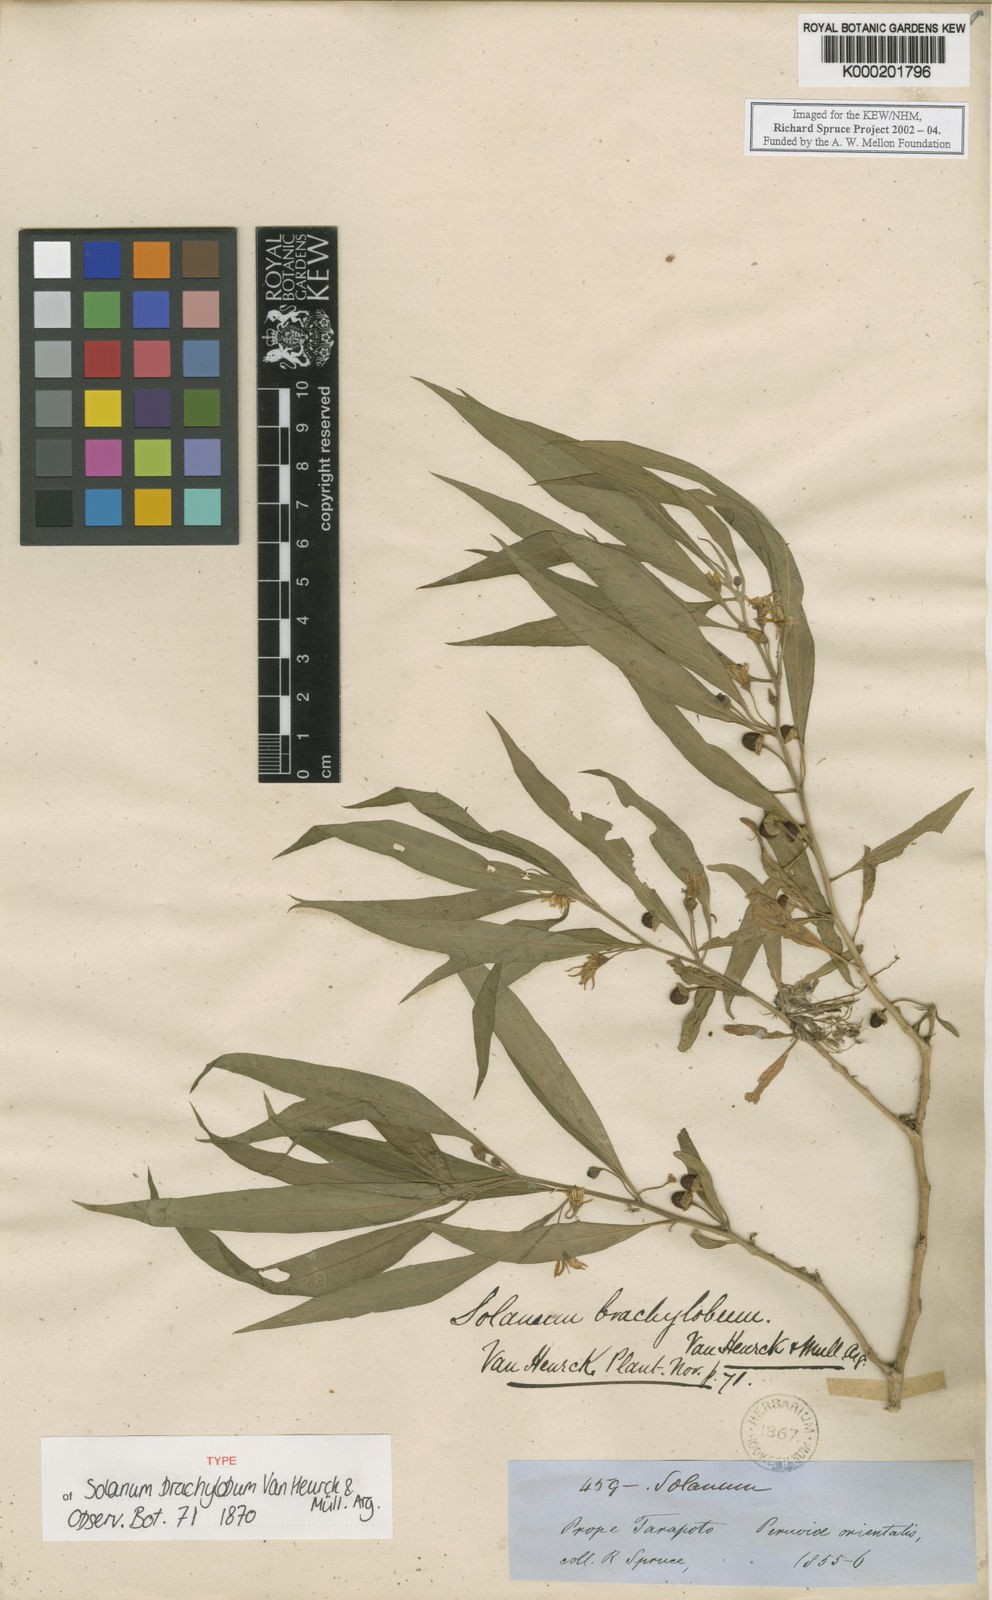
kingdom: Plantae
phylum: Tracheophyta
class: Magnoliopsida
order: Solanales
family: Solanaceae
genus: Lycianthes
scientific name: Lycianthes brachyloba
